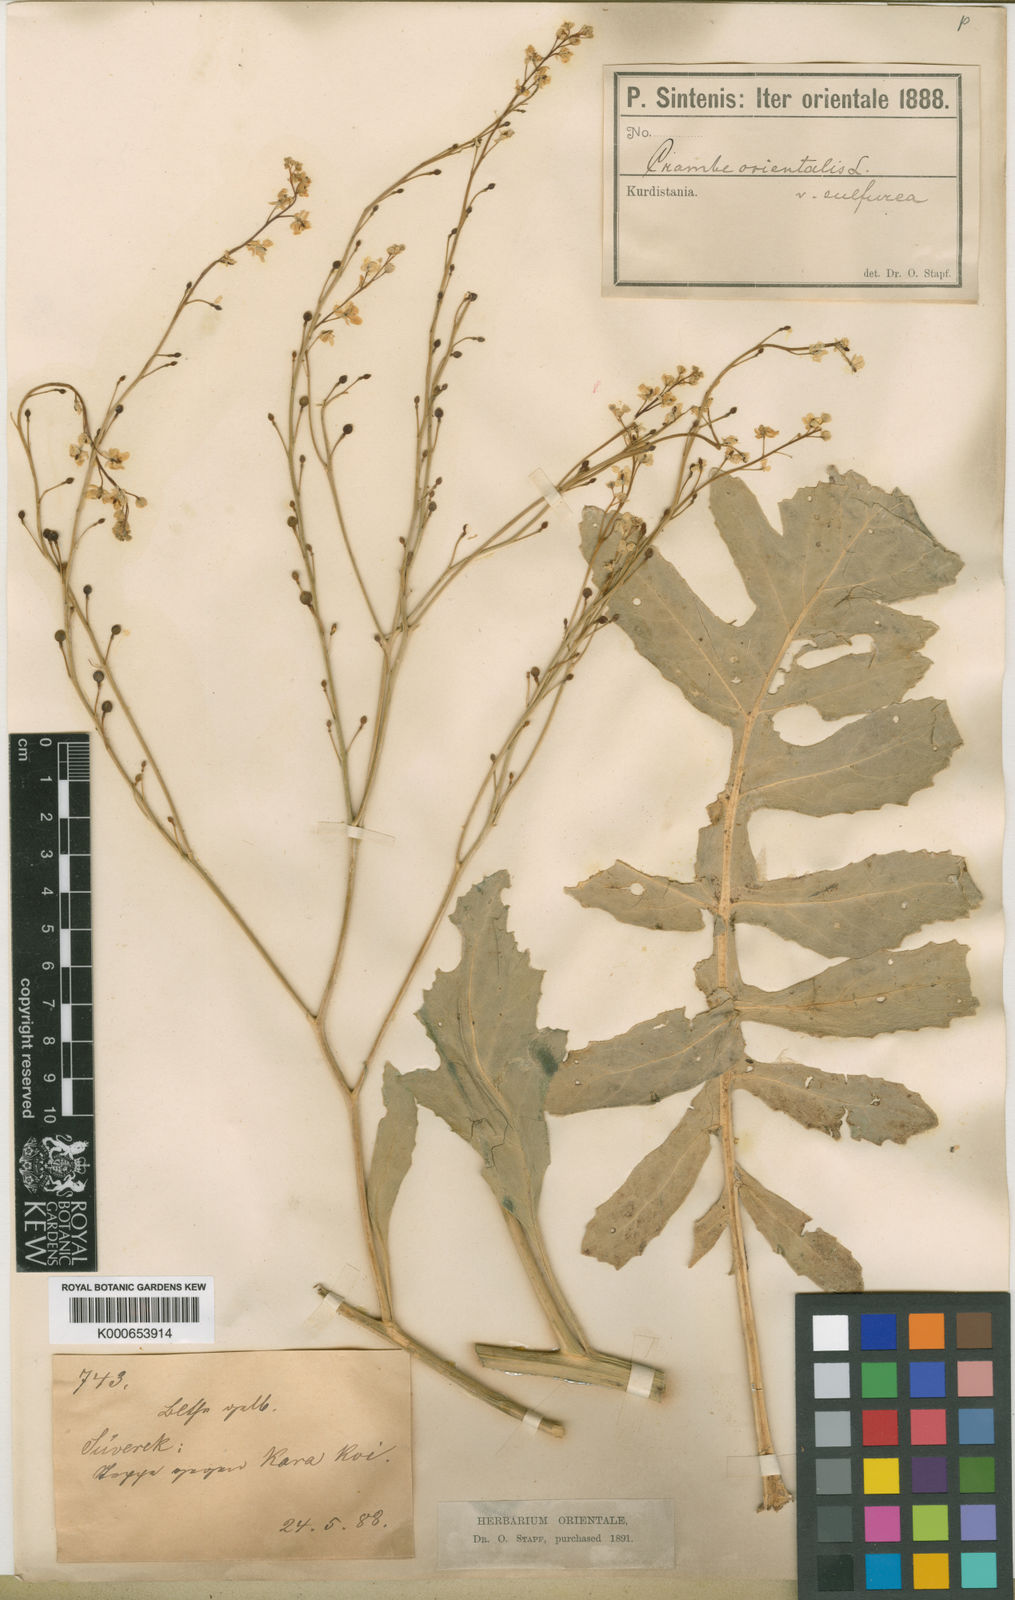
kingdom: Plantae
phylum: Tracheophyta
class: Magnoliopsida
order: Brassicales
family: Brassicaceae
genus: Crambe
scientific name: Crambe orientalis
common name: Oriental sea-kale
